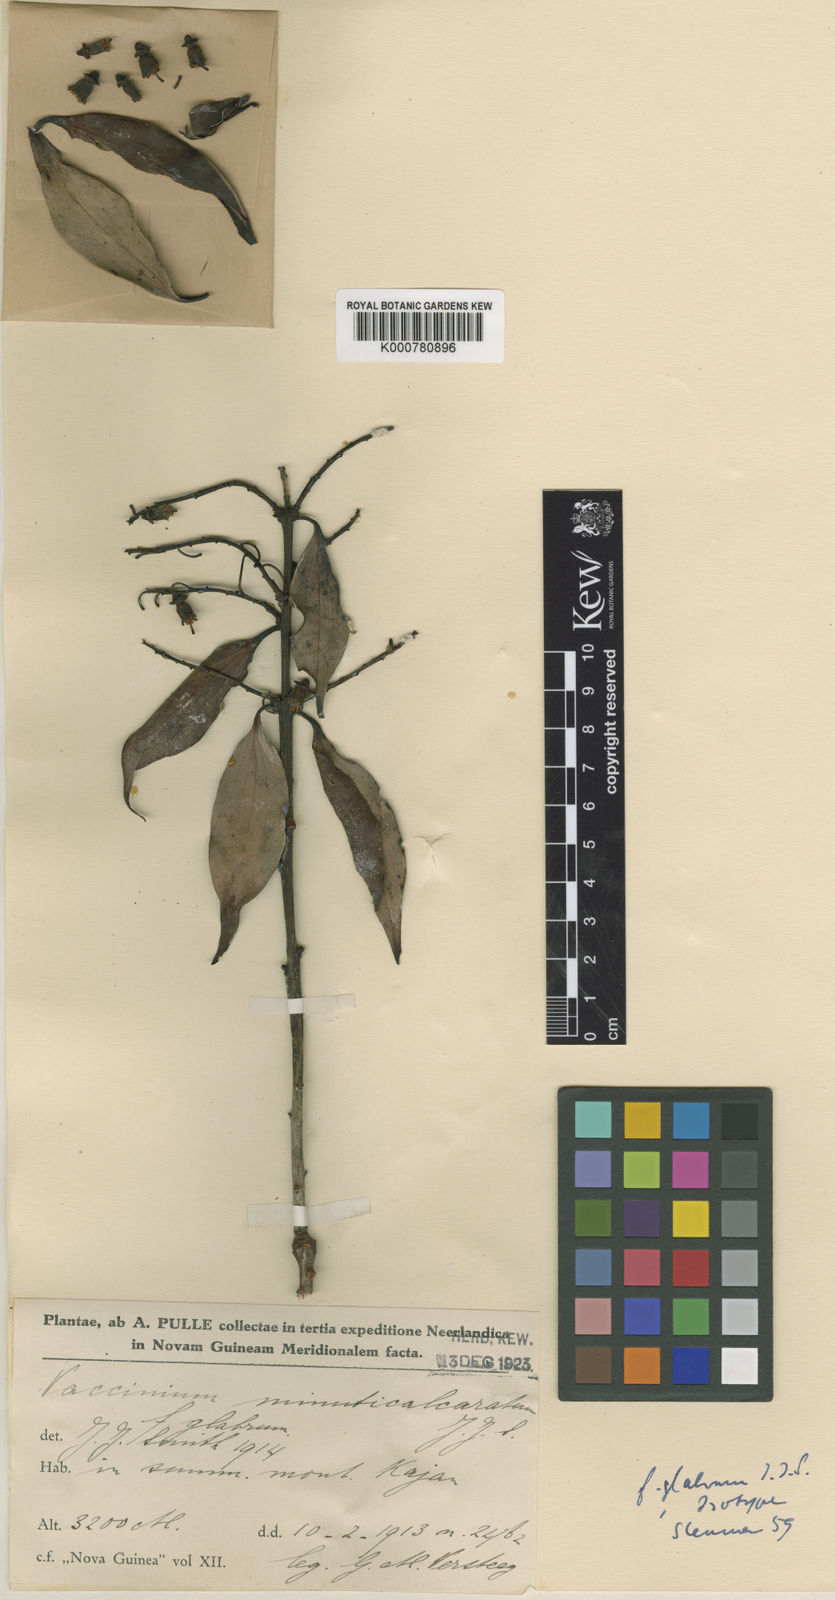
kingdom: Plantae
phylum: Tracheophyta
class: Magnoliopsida
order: Ericales
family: Ericaceae
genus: Vaccinium
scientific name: Vaccinium minuticalcaratum
